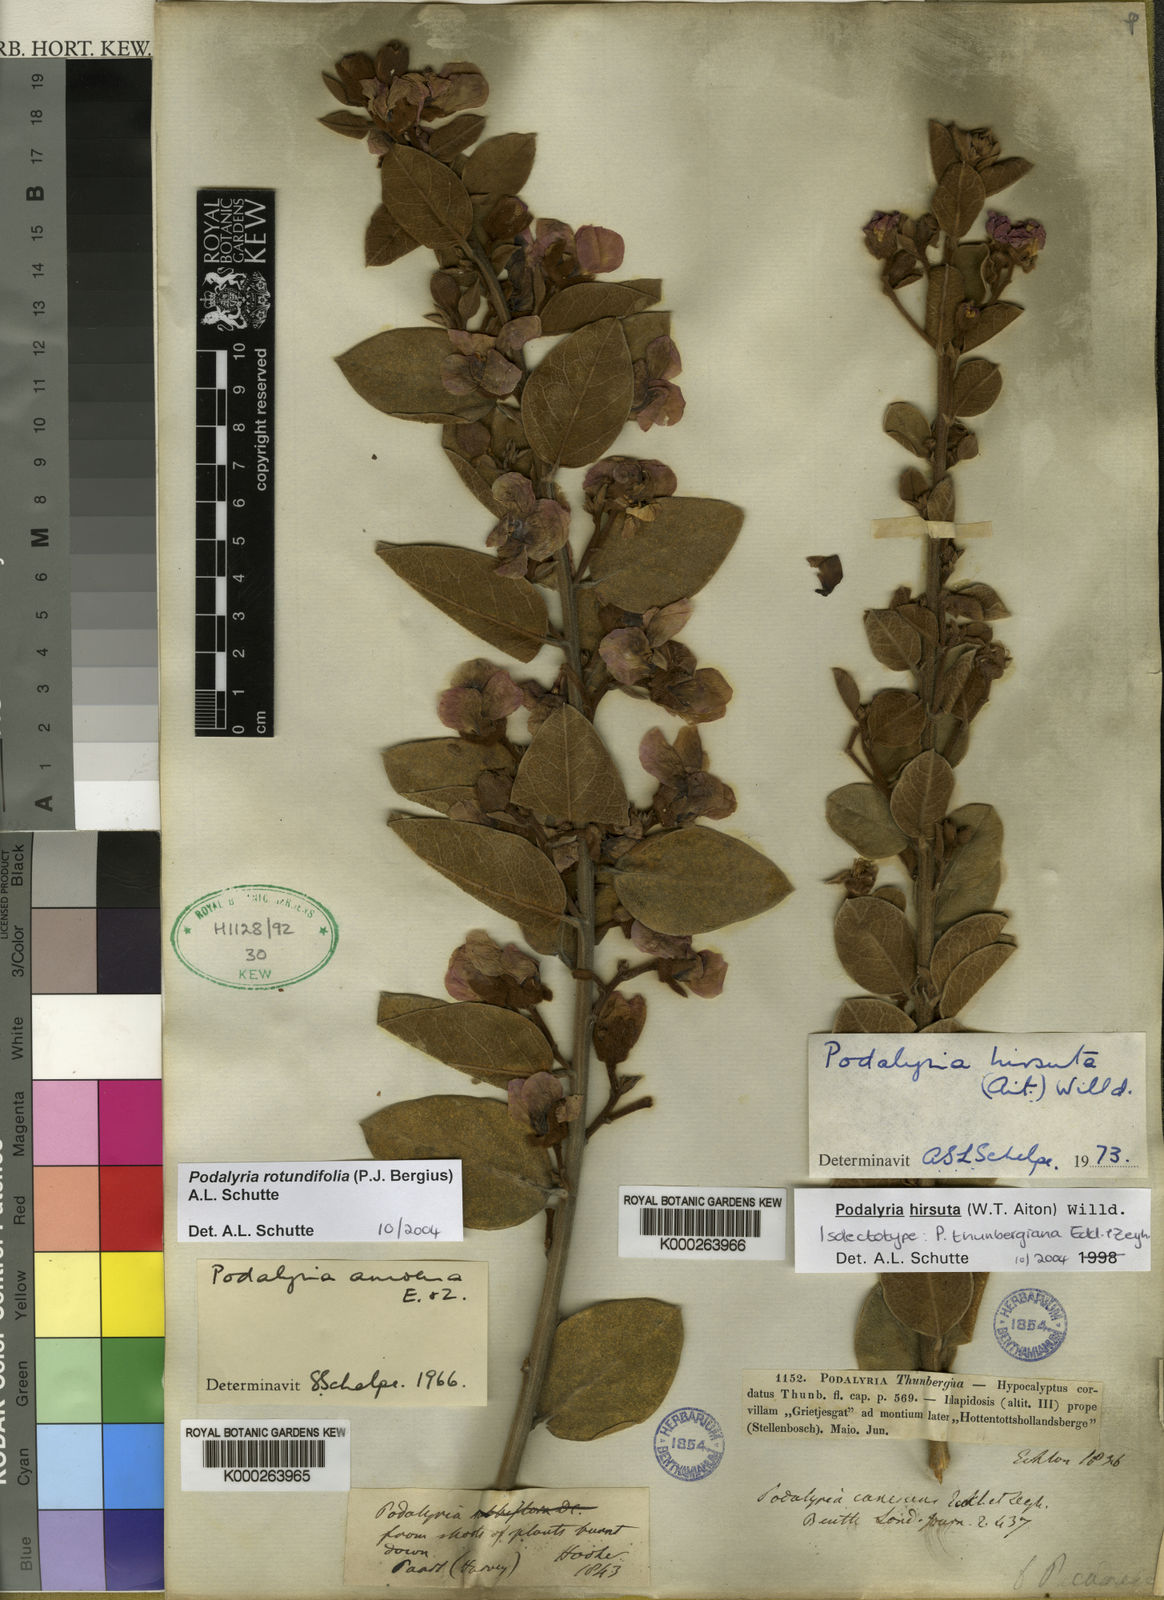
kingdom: Plantae
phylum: Tracheophyta
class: Magnoliopsida
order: Fabales
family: Fabaceae
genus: Podalyria
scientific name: Podalyria
